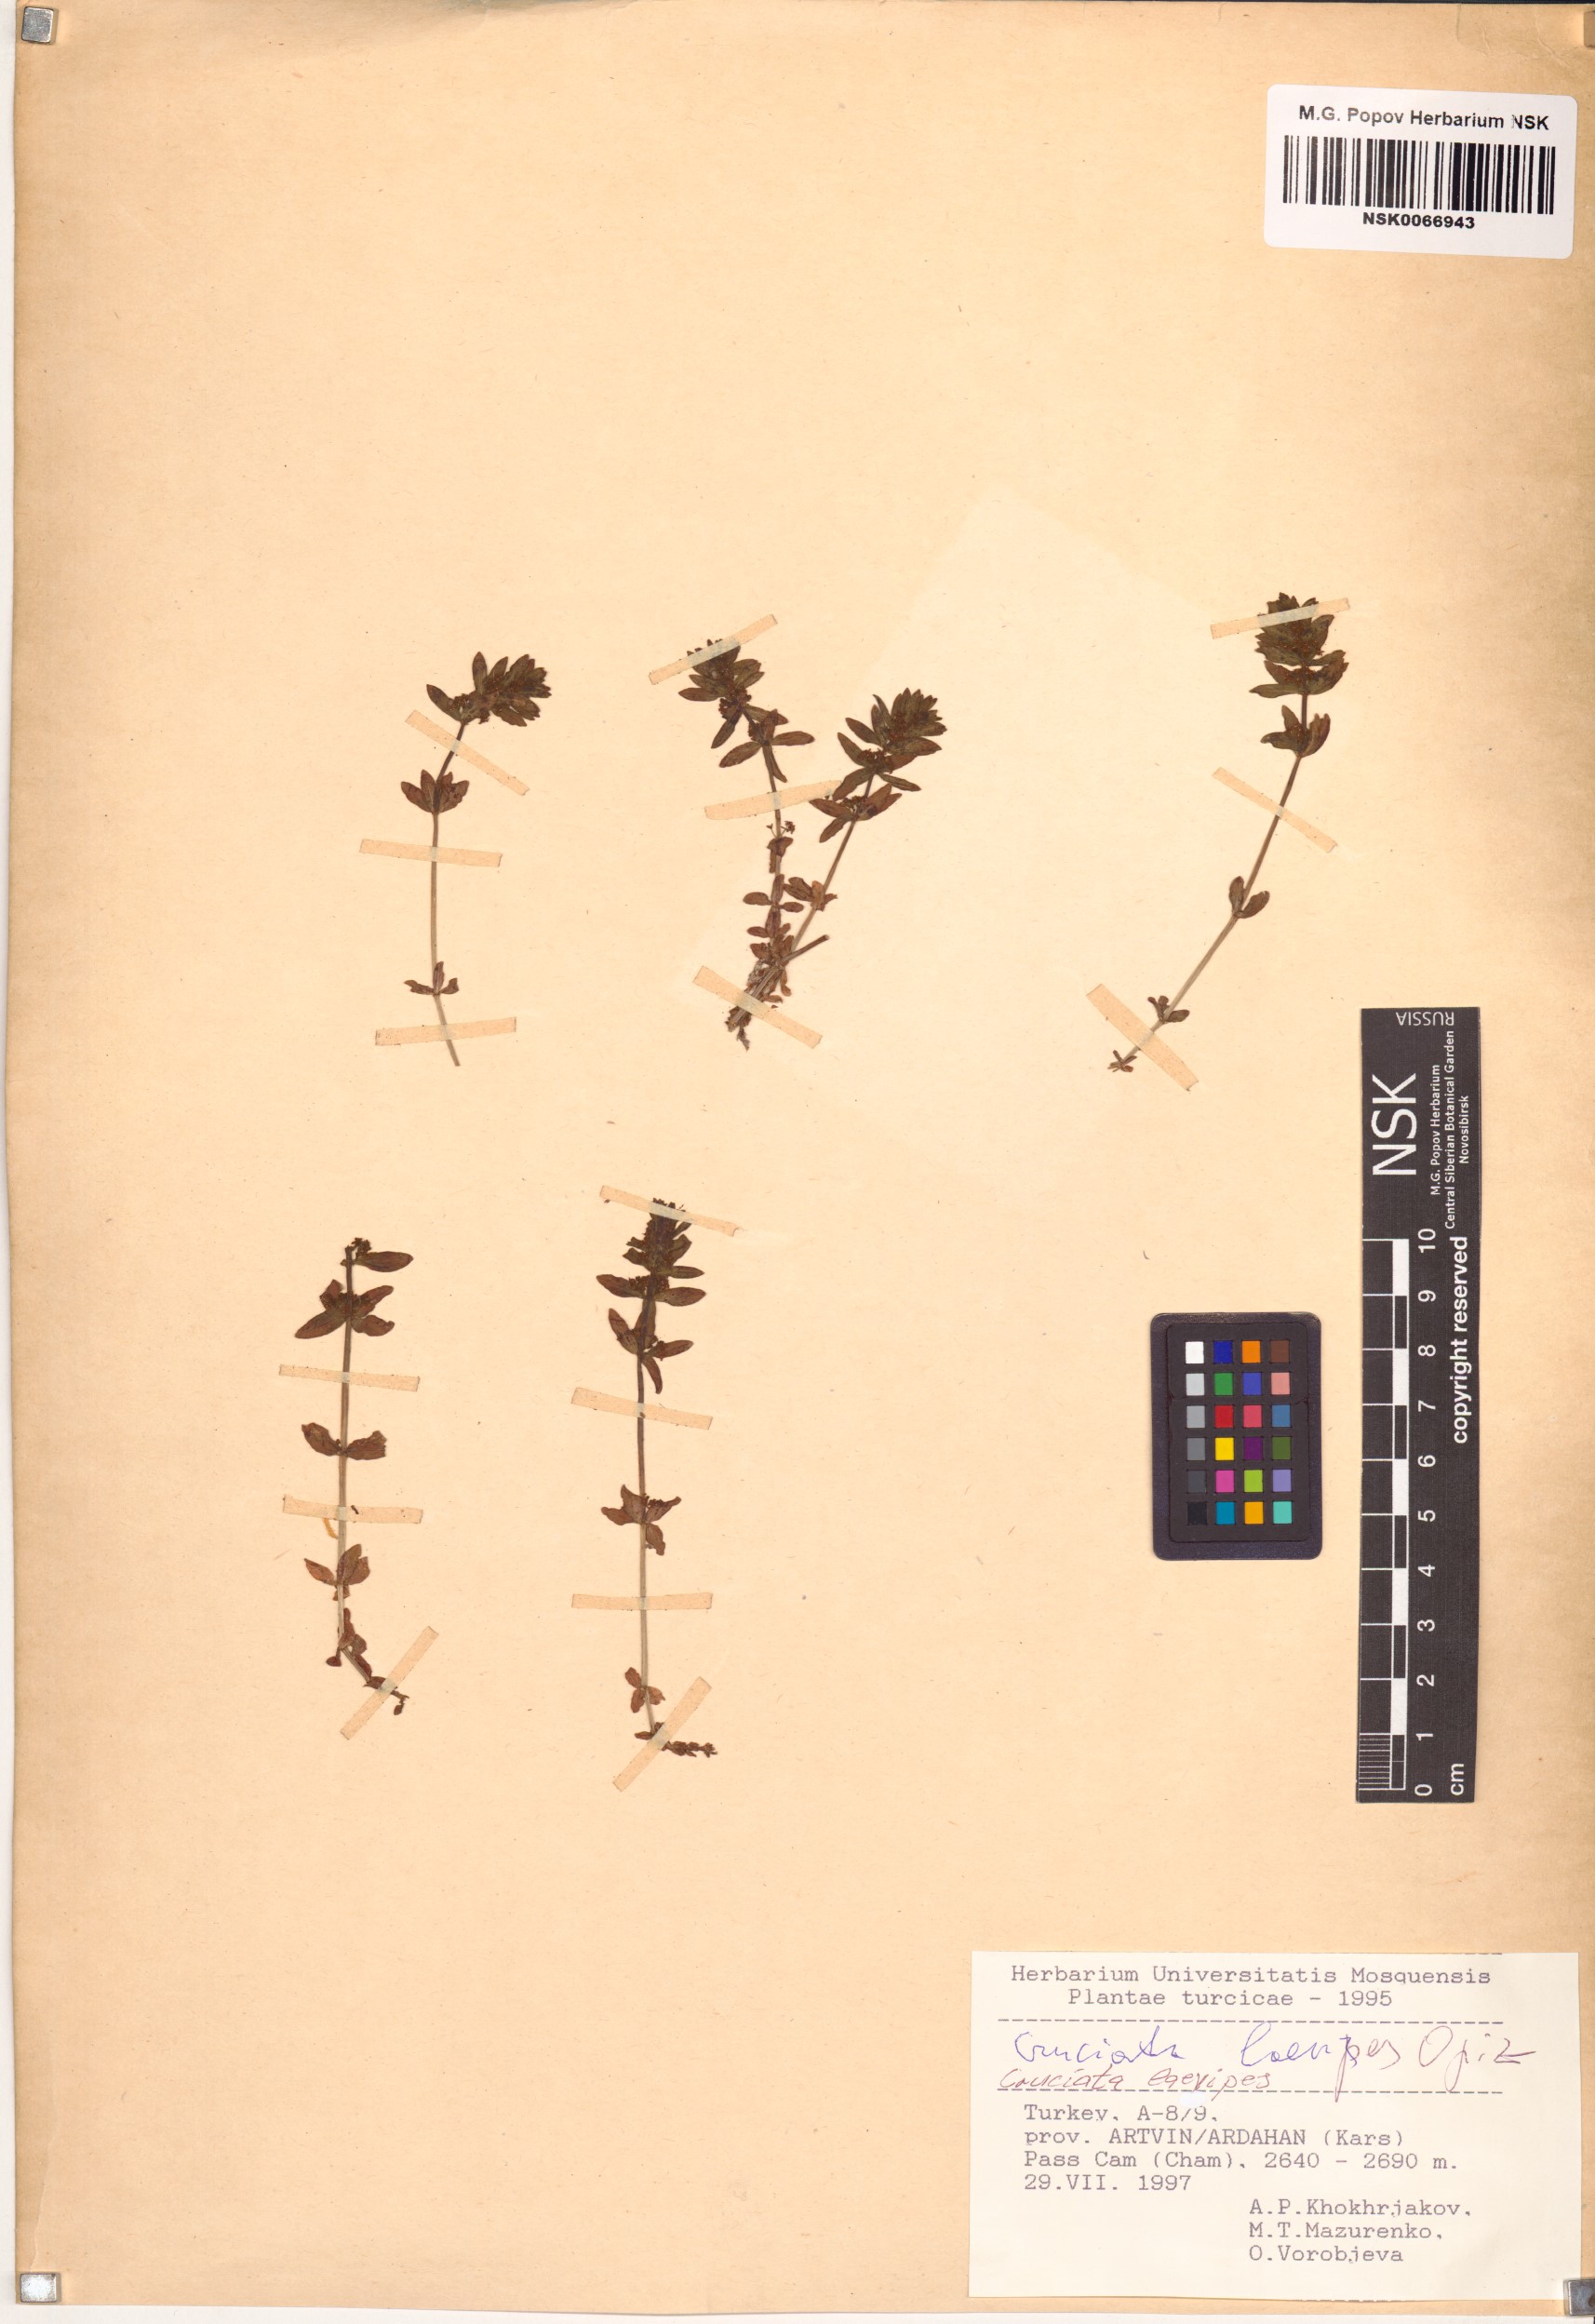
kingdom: Plantae
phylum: Tracheophyta
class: Magnoliopsida
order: Gentianales
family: Rubiaceae
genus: Cruciata
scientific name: Cruciata laevipes
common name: Crosswort
